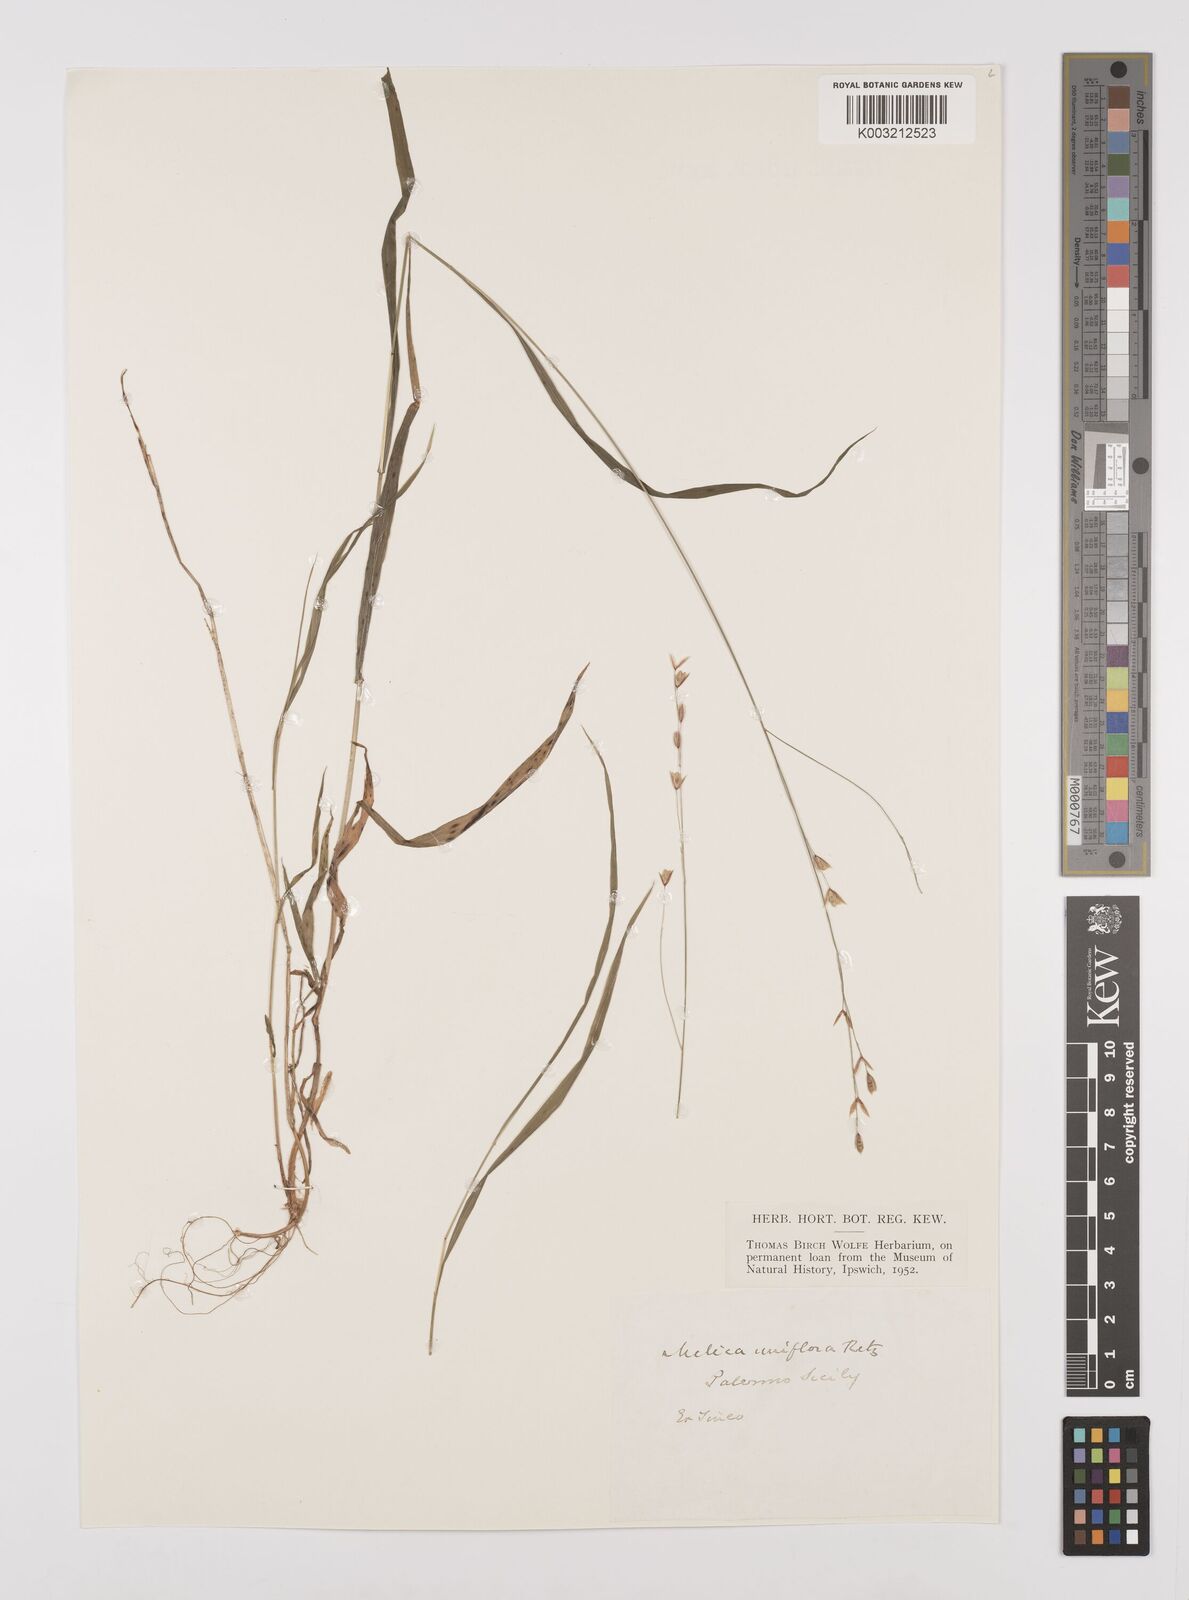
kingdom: Plantae
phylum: Tracheophyta
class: Liliopsida
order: Poales
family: Poaceae
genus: Melica
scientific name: Melica uniflora
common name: Wood melick
